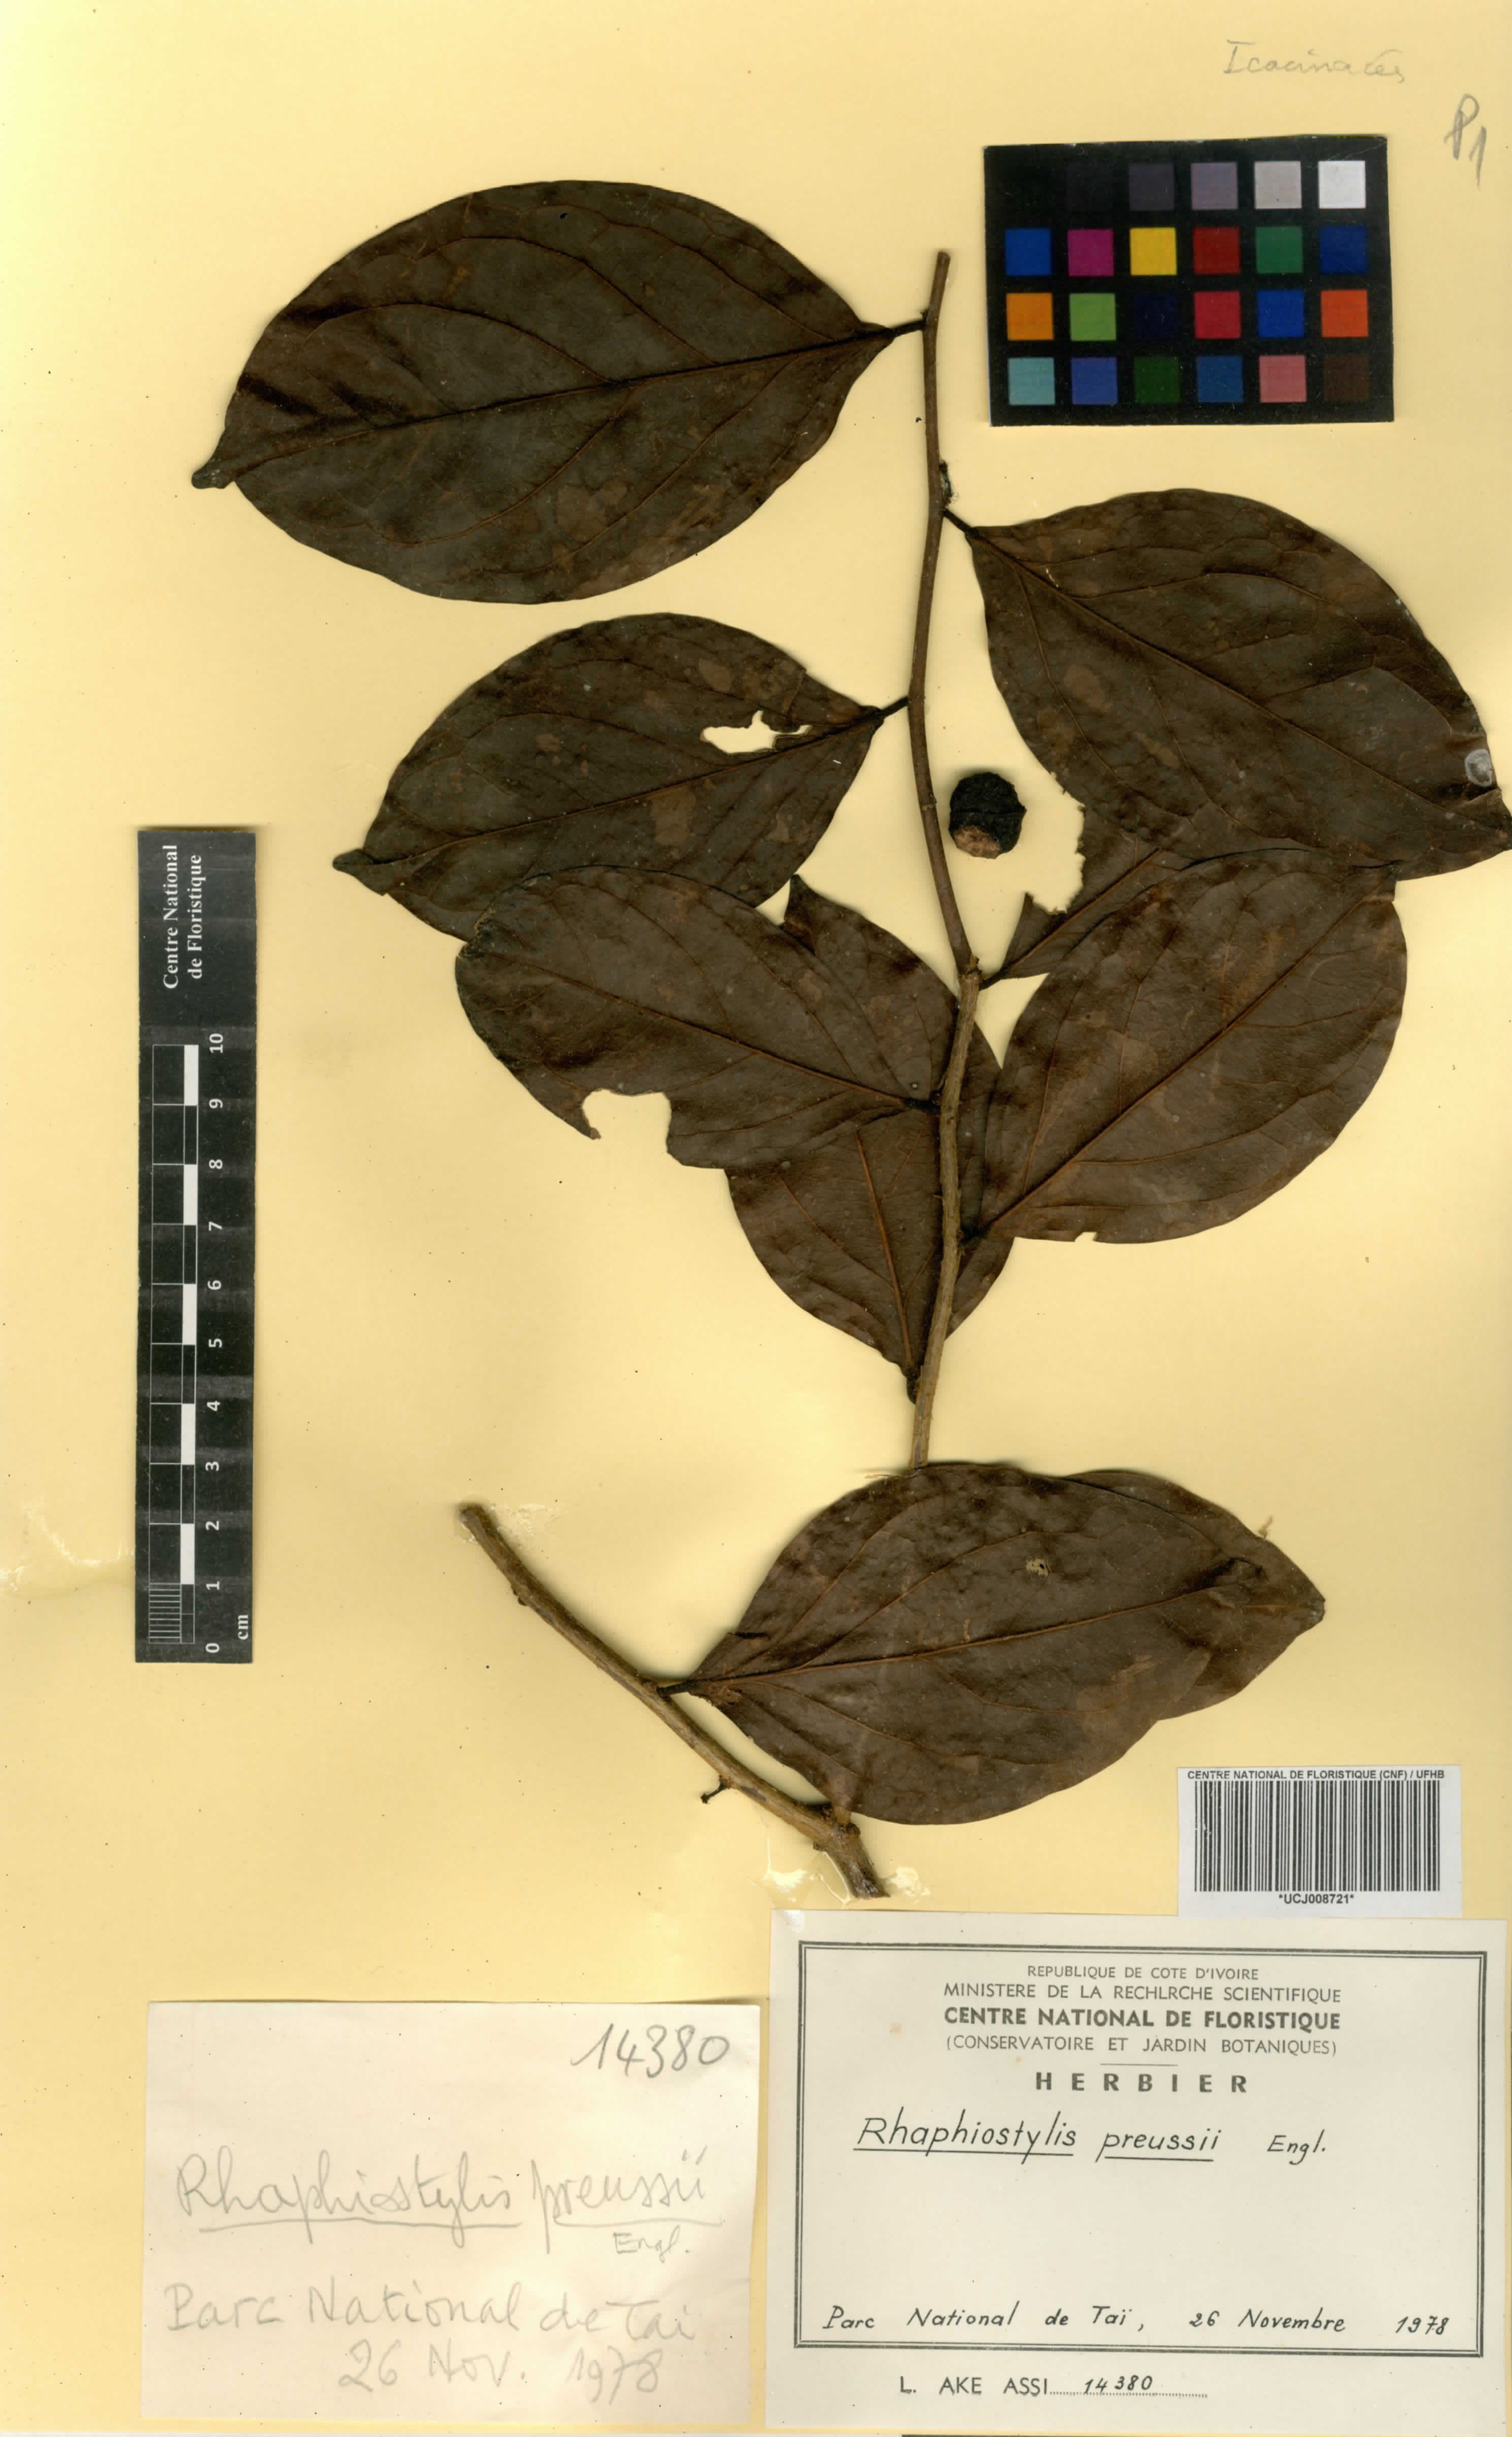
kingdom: Plantae
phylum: Tracheophyta
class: Magnoliopsida
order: Metteniusales
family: Metteniusaceae
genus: Rhaphiostylis
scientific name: Rhaphiostylis preussii
